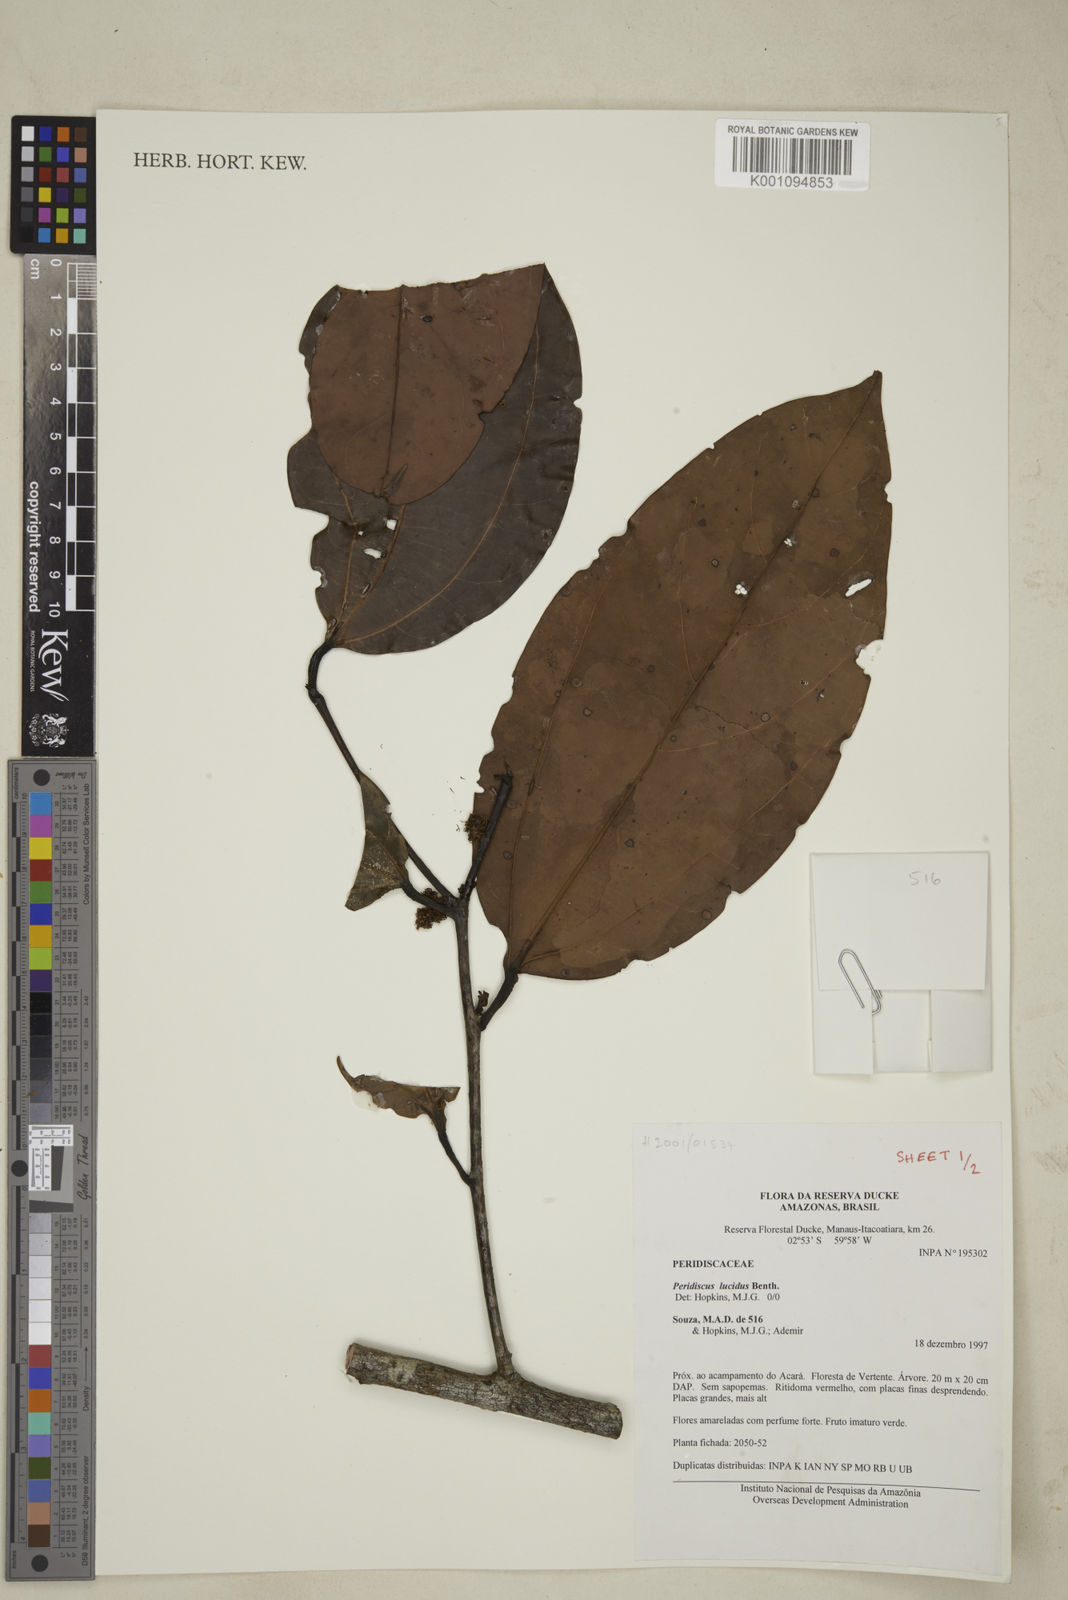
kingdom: Plantae
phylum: Tracheophyta
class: Magnoliopsida
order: Saxifragales
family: Peridiscaceae
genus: Peridiscus
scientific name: Peridiscus lucidus
